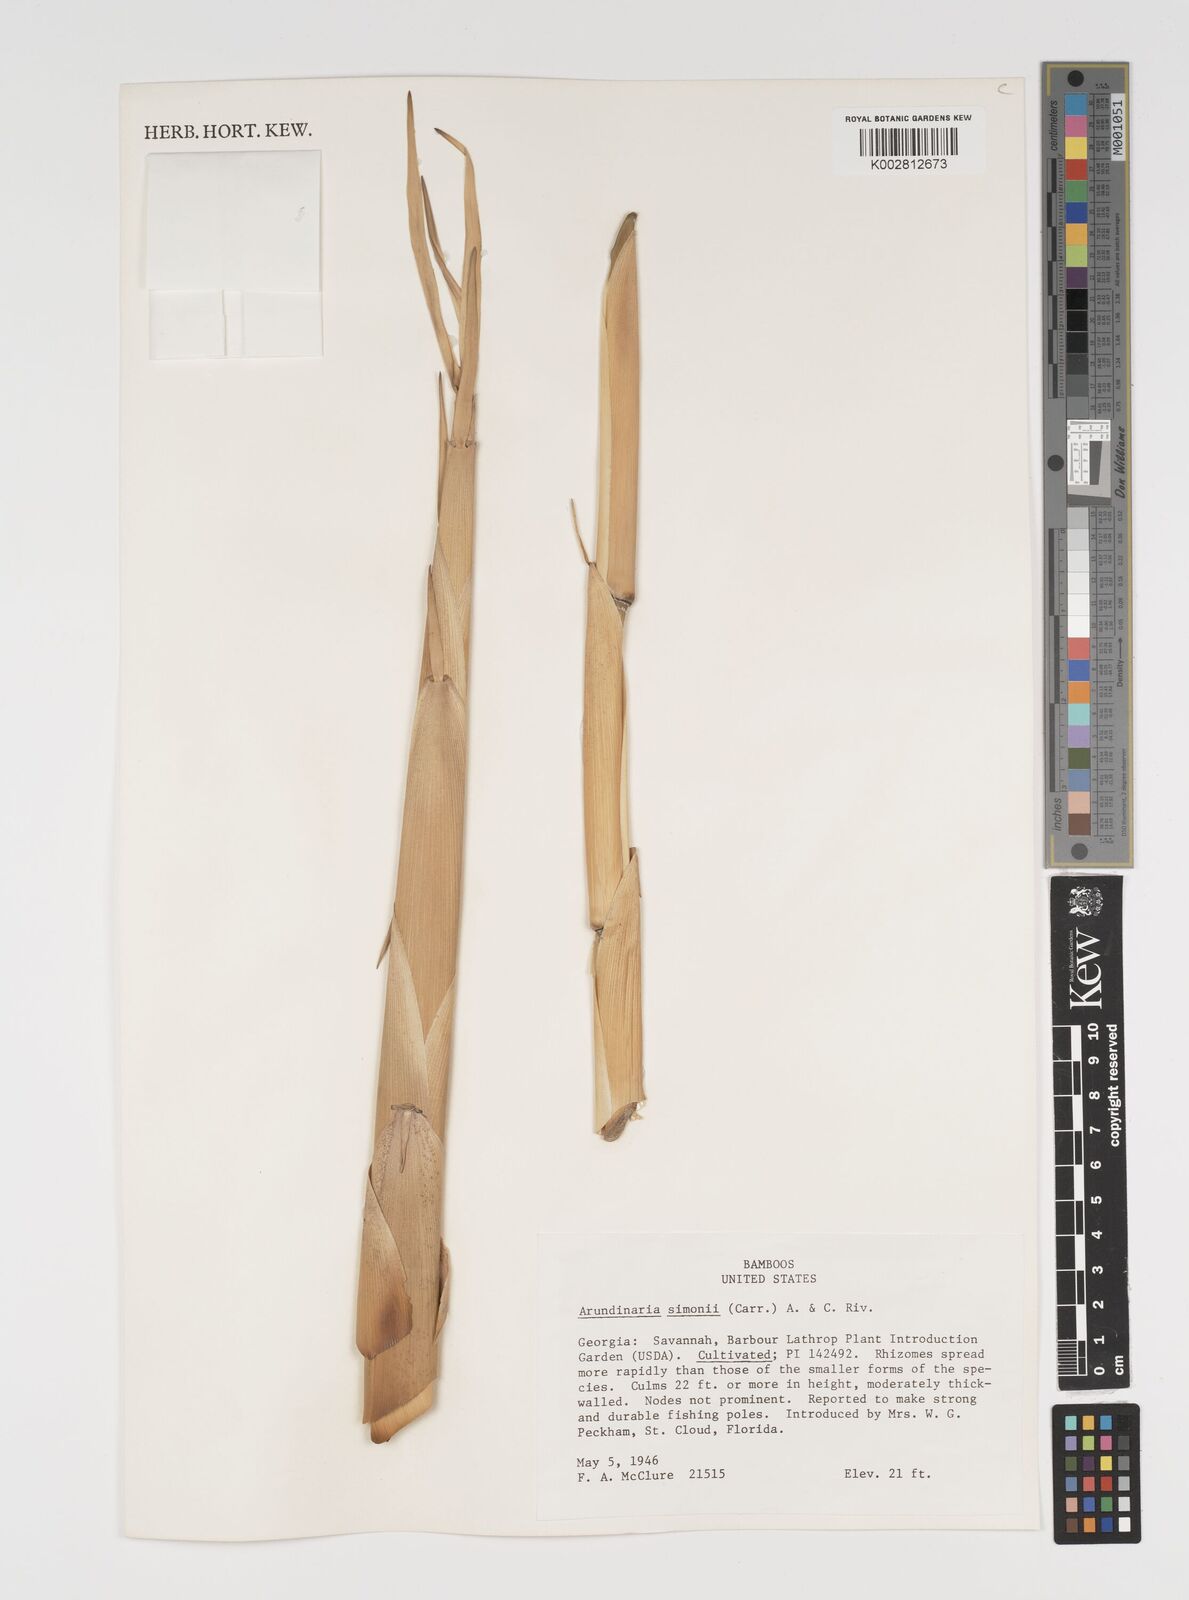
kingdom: Plantae
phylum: Tracheophyta
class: Liliopsida
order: Poales
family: Poaceae
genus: Pleioblastus
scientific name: Pleioblastus simonii
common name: Simon bamboo
